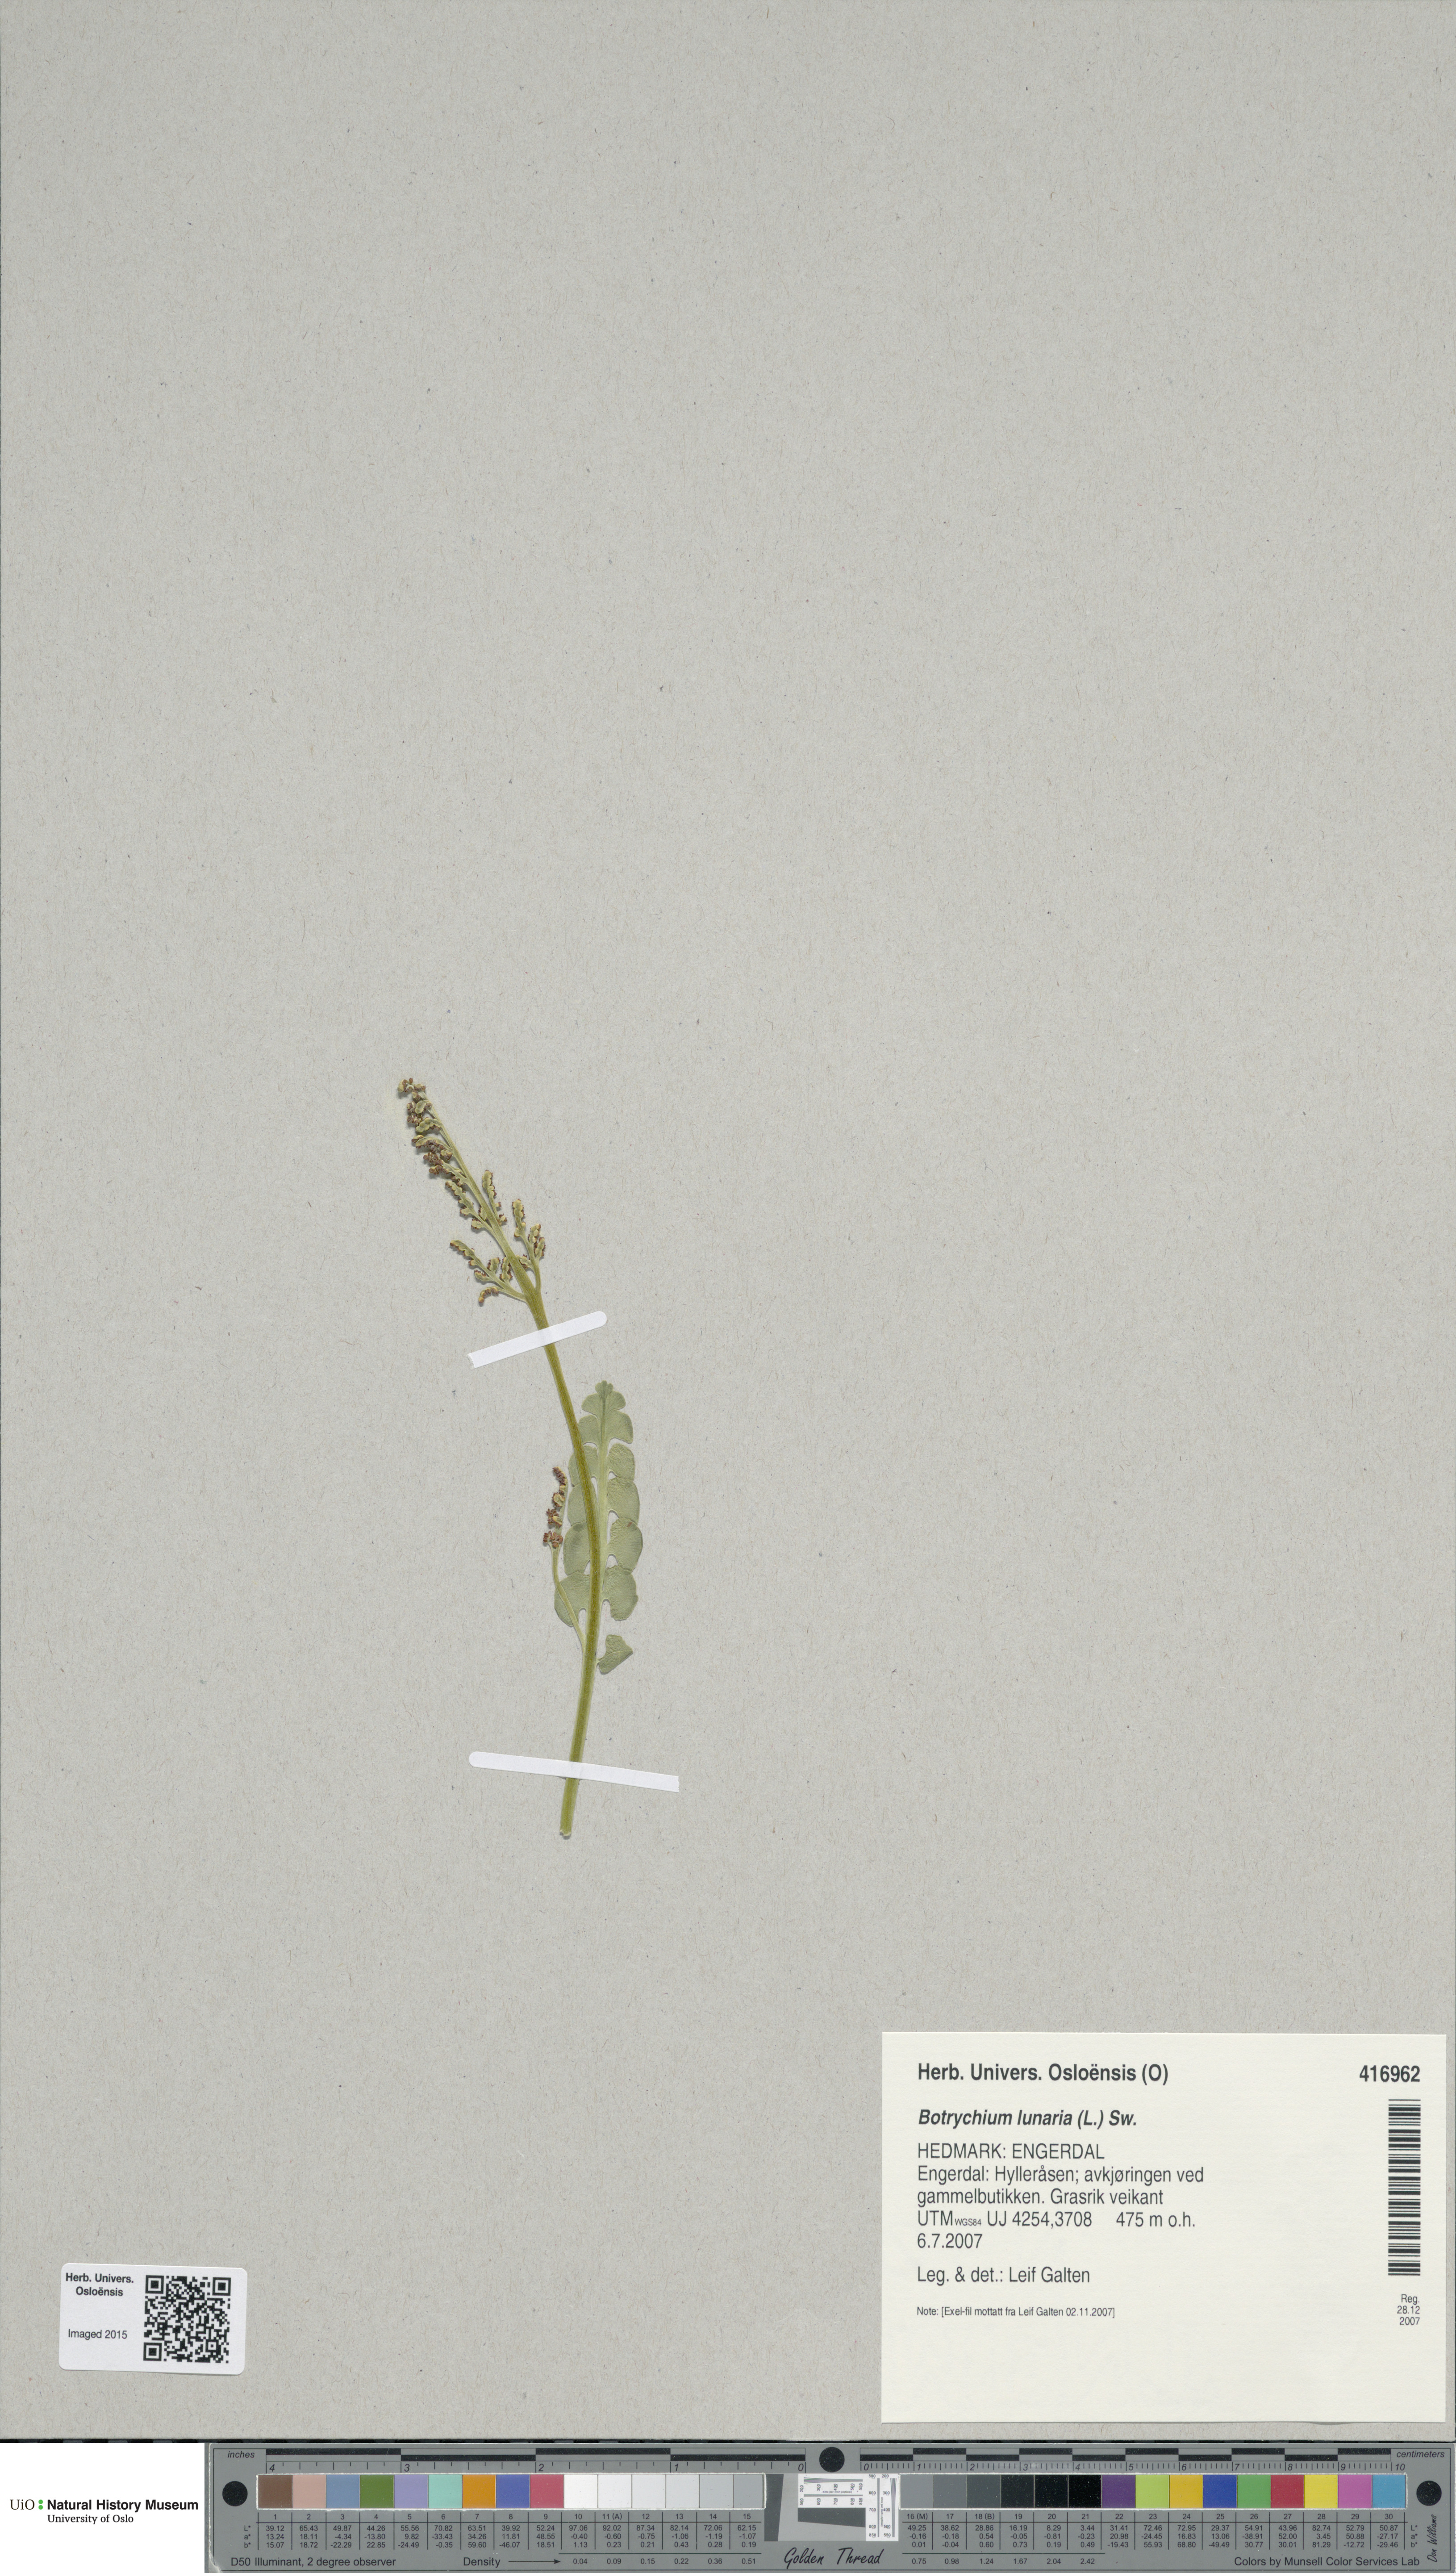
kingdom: Plantae
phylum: Tracheophyta
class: Polypodiopsida
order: Ophioglossales
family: Ophioglossaceae
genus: Botrychium
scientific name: Botrychium lunaria
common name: Moonwort
